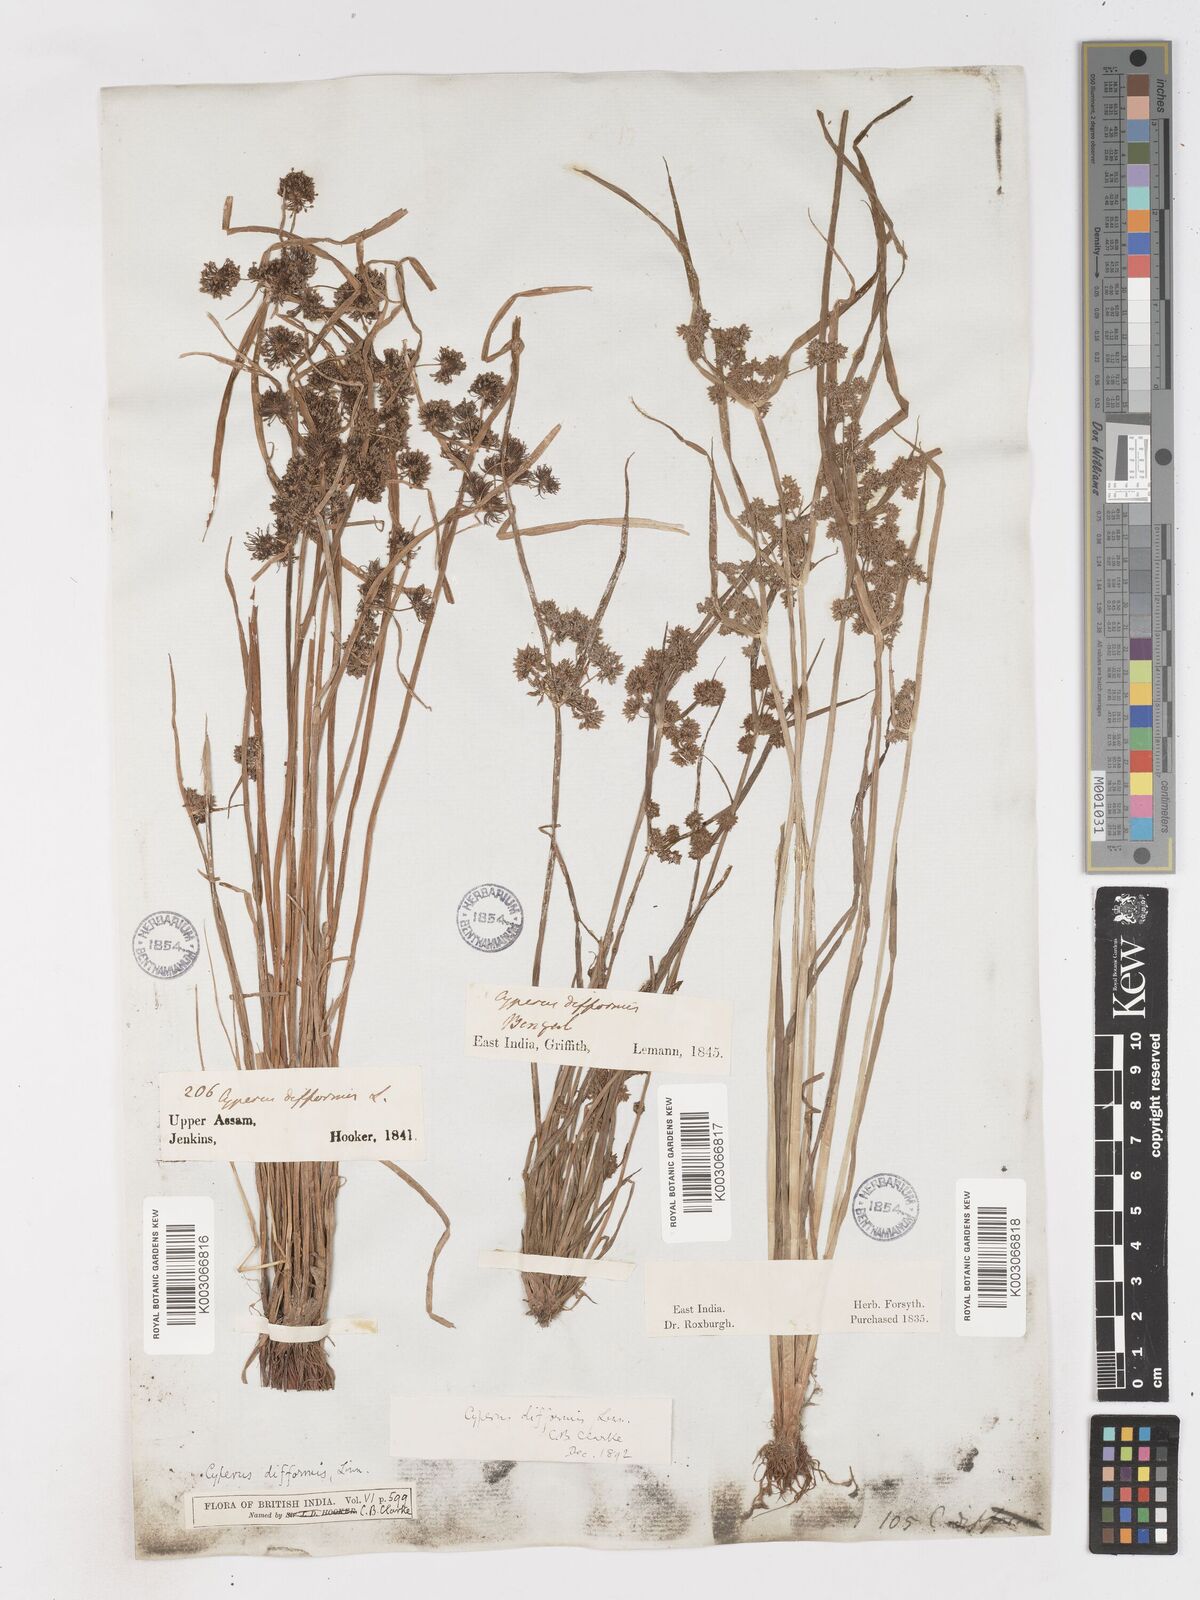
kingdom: Plantae
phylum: Tracheophyta
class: Liliopsida
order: Poales
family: Cyperaceae
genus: Cyperus
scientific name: Cyperus difformis
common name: Variable flatsedge
